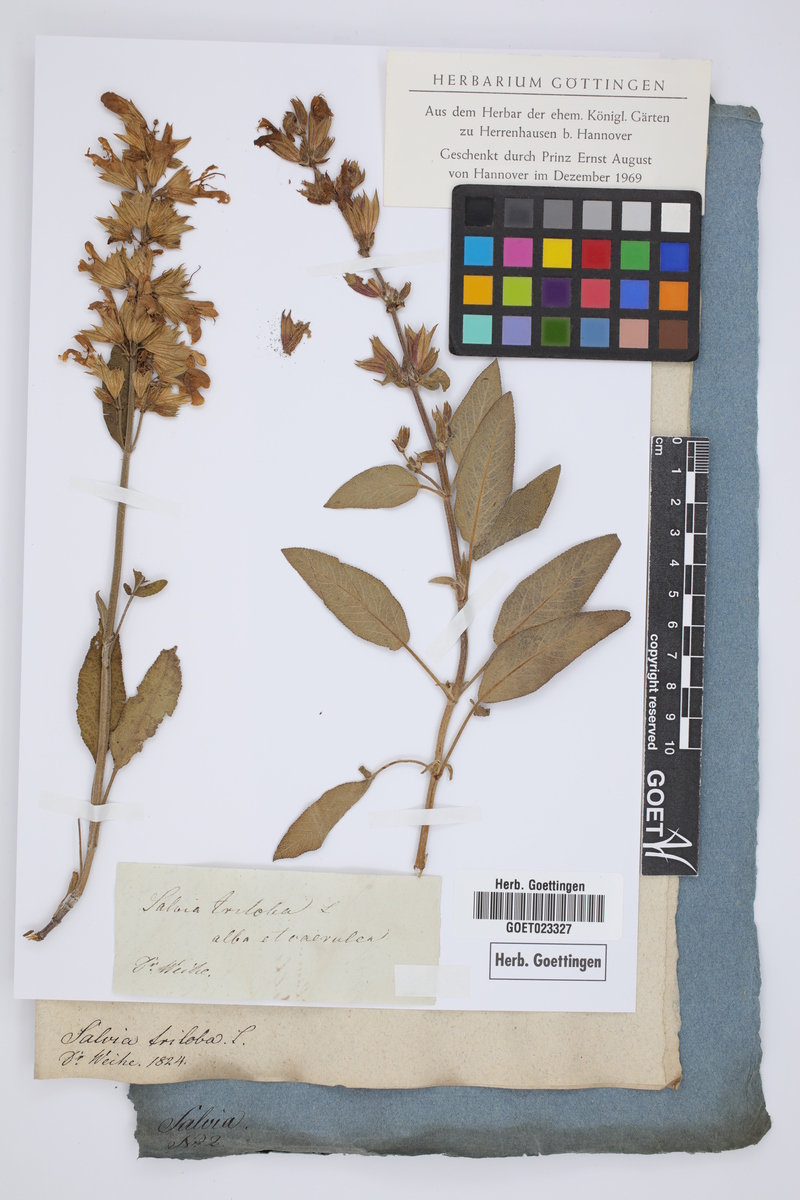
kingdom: Plantae
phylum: Tracheophyta
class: Magnoliopsida
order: Lamiales
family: Lamiaceae
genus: Salvia
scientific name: Salvia fruticosa
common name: Greek sage
